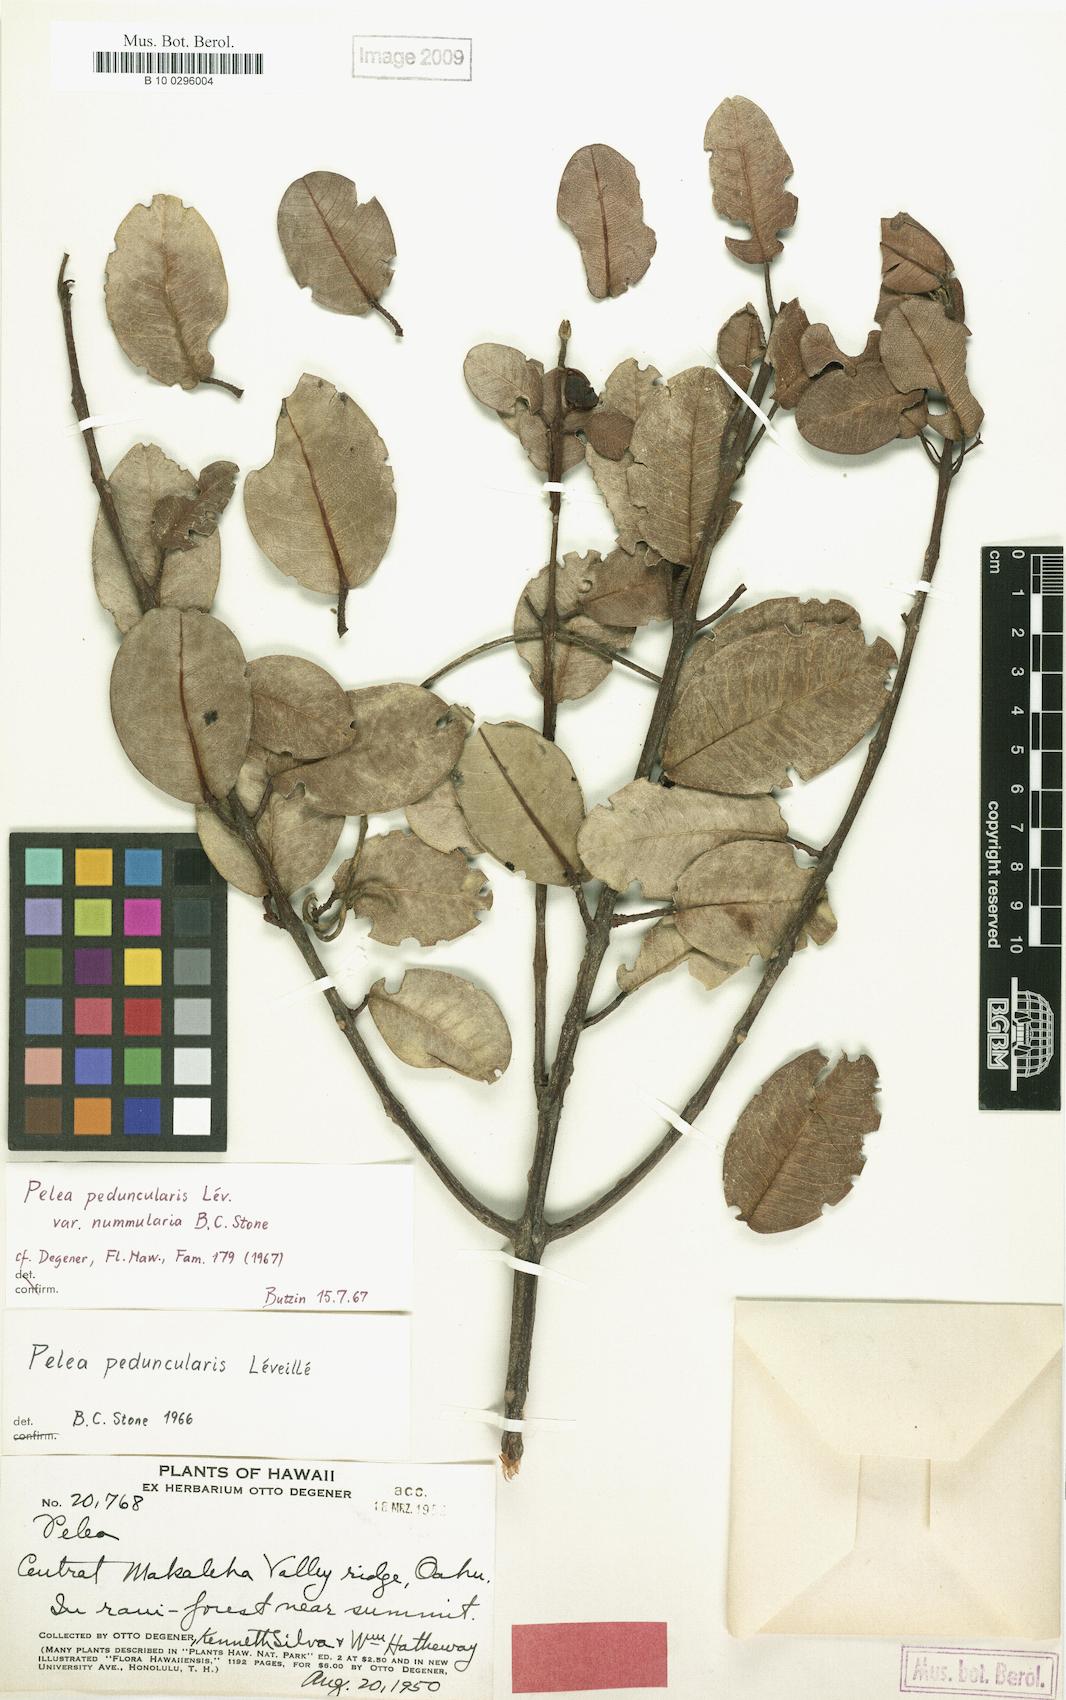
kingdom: Plantae
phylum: Tracheophyta
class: Magnoliopsida
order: Sapindales
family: Rutaceae
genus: Melicope
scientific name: Melicope peduncularis
